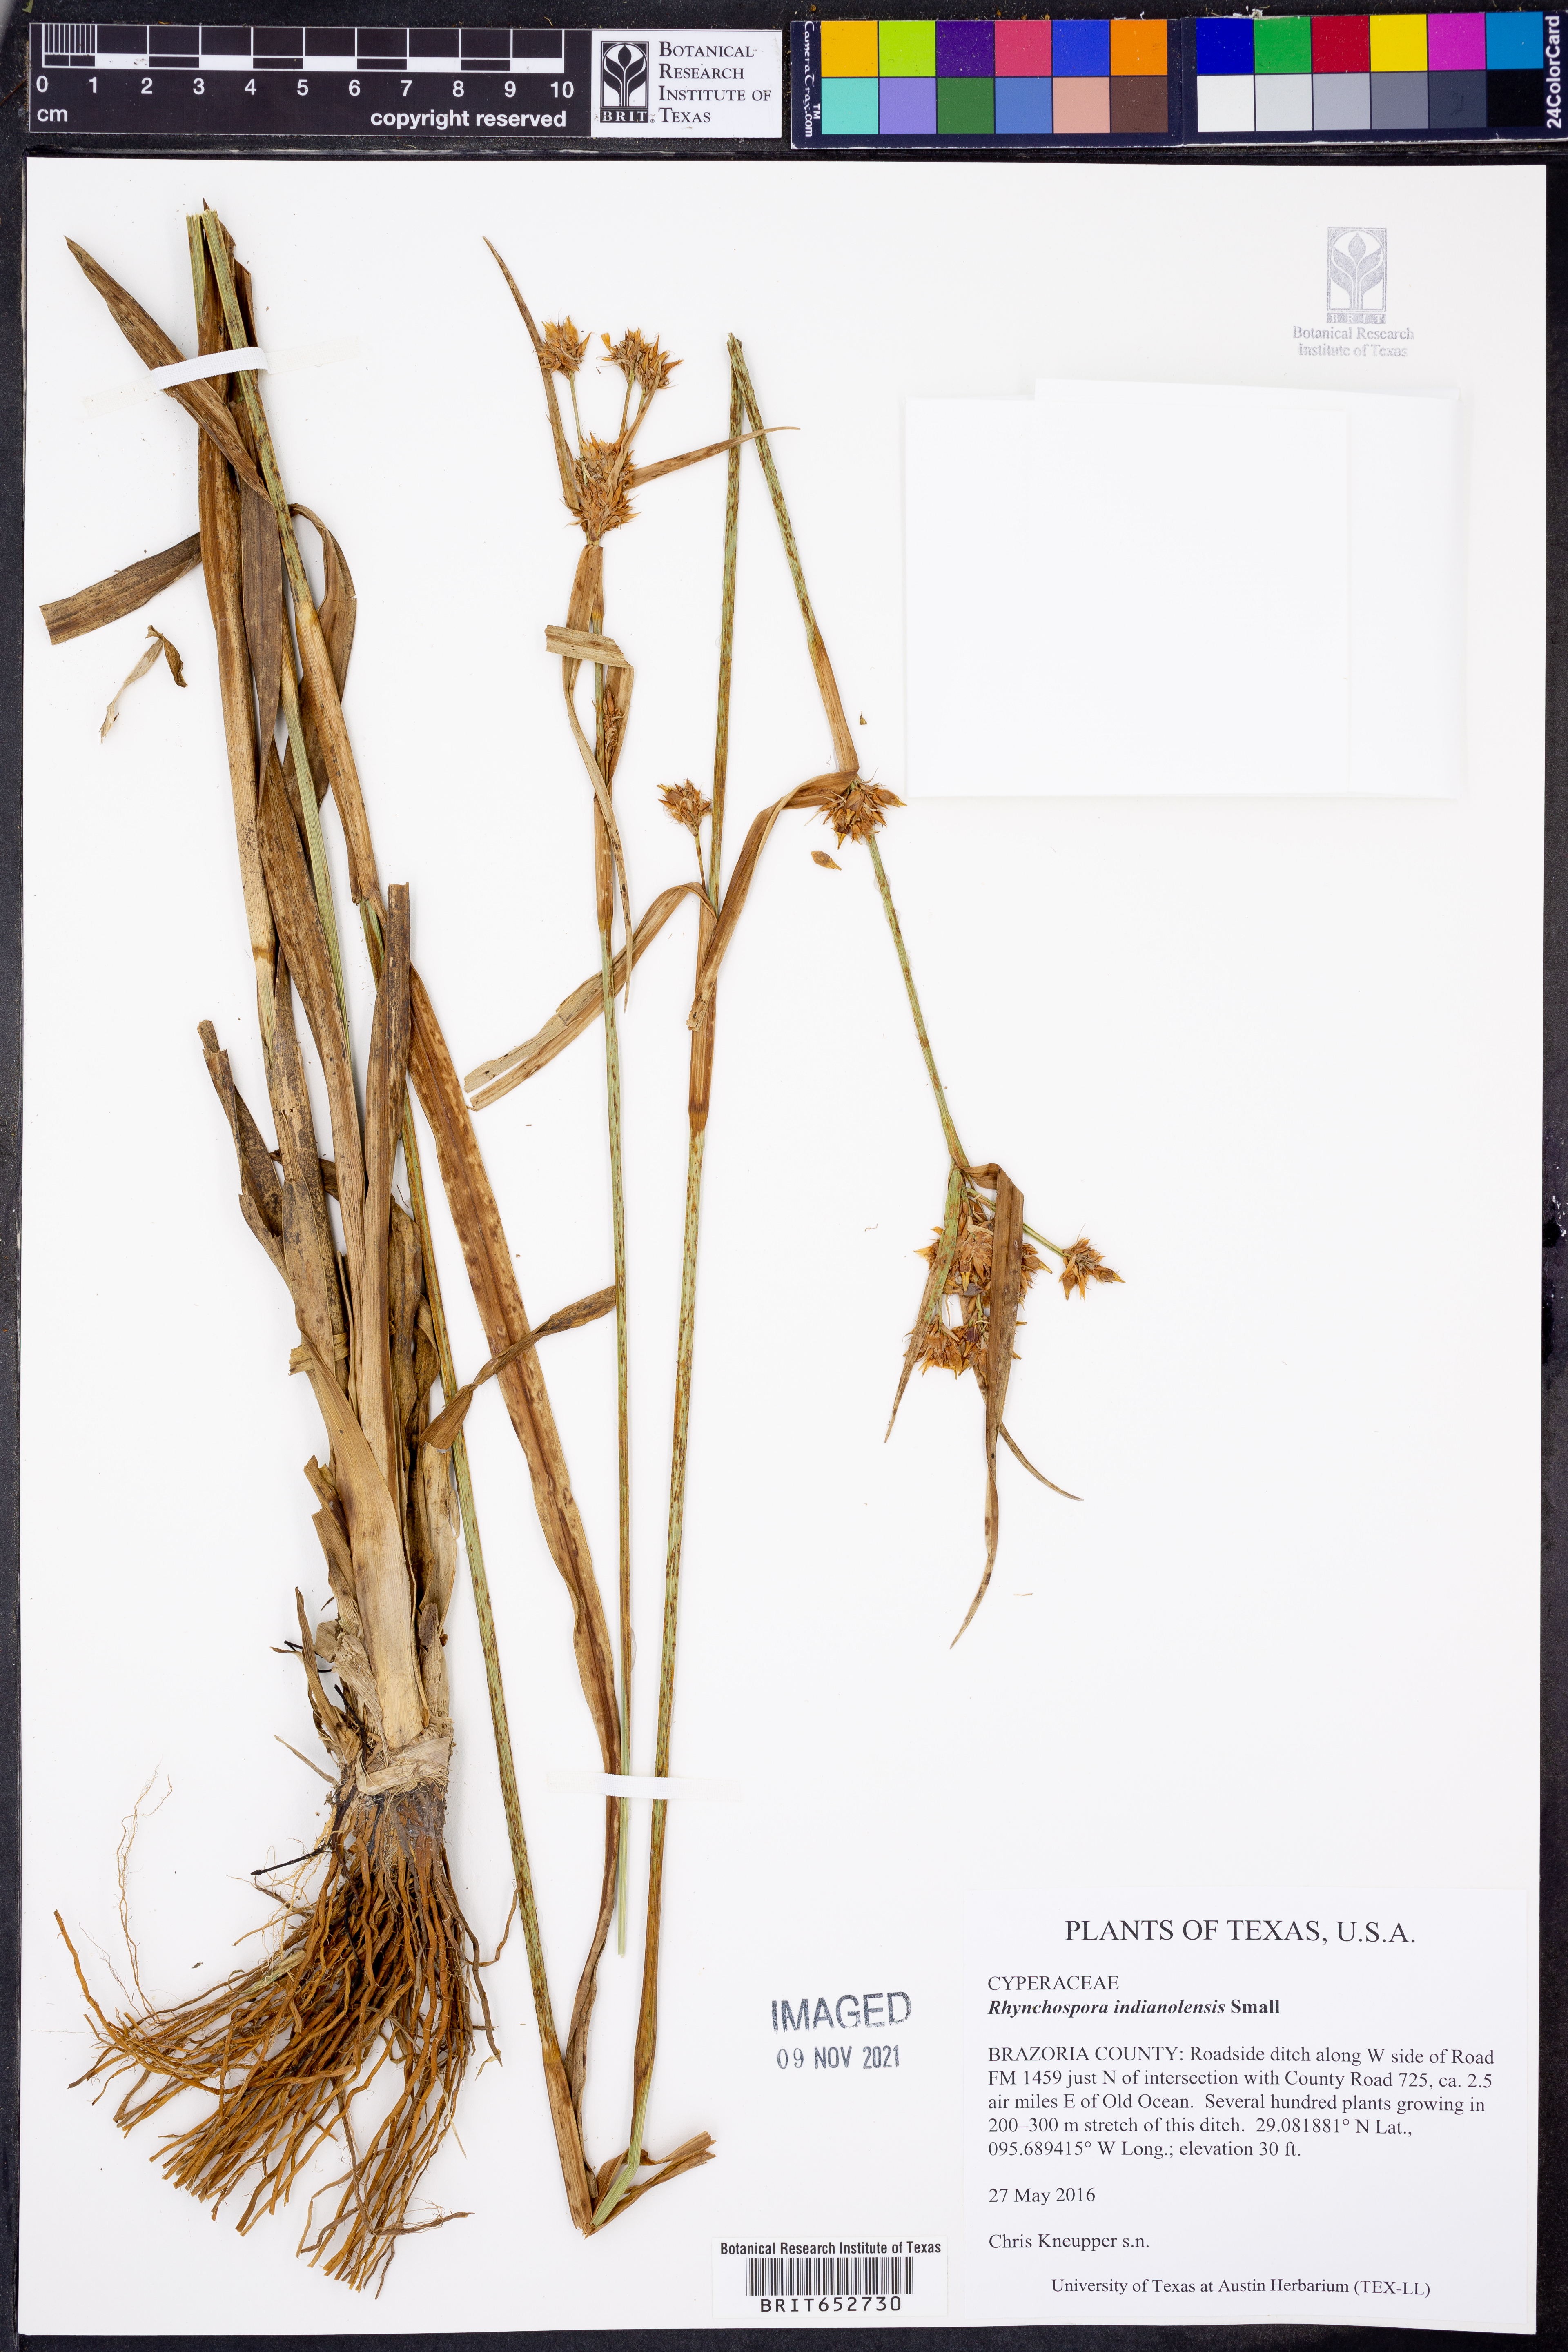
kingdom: Plantae
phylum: Tracheophyta
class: Liliopsida
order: Poales
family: Cyperaceae
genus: Rhynchospora
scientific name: Rhynchospora scutellata
